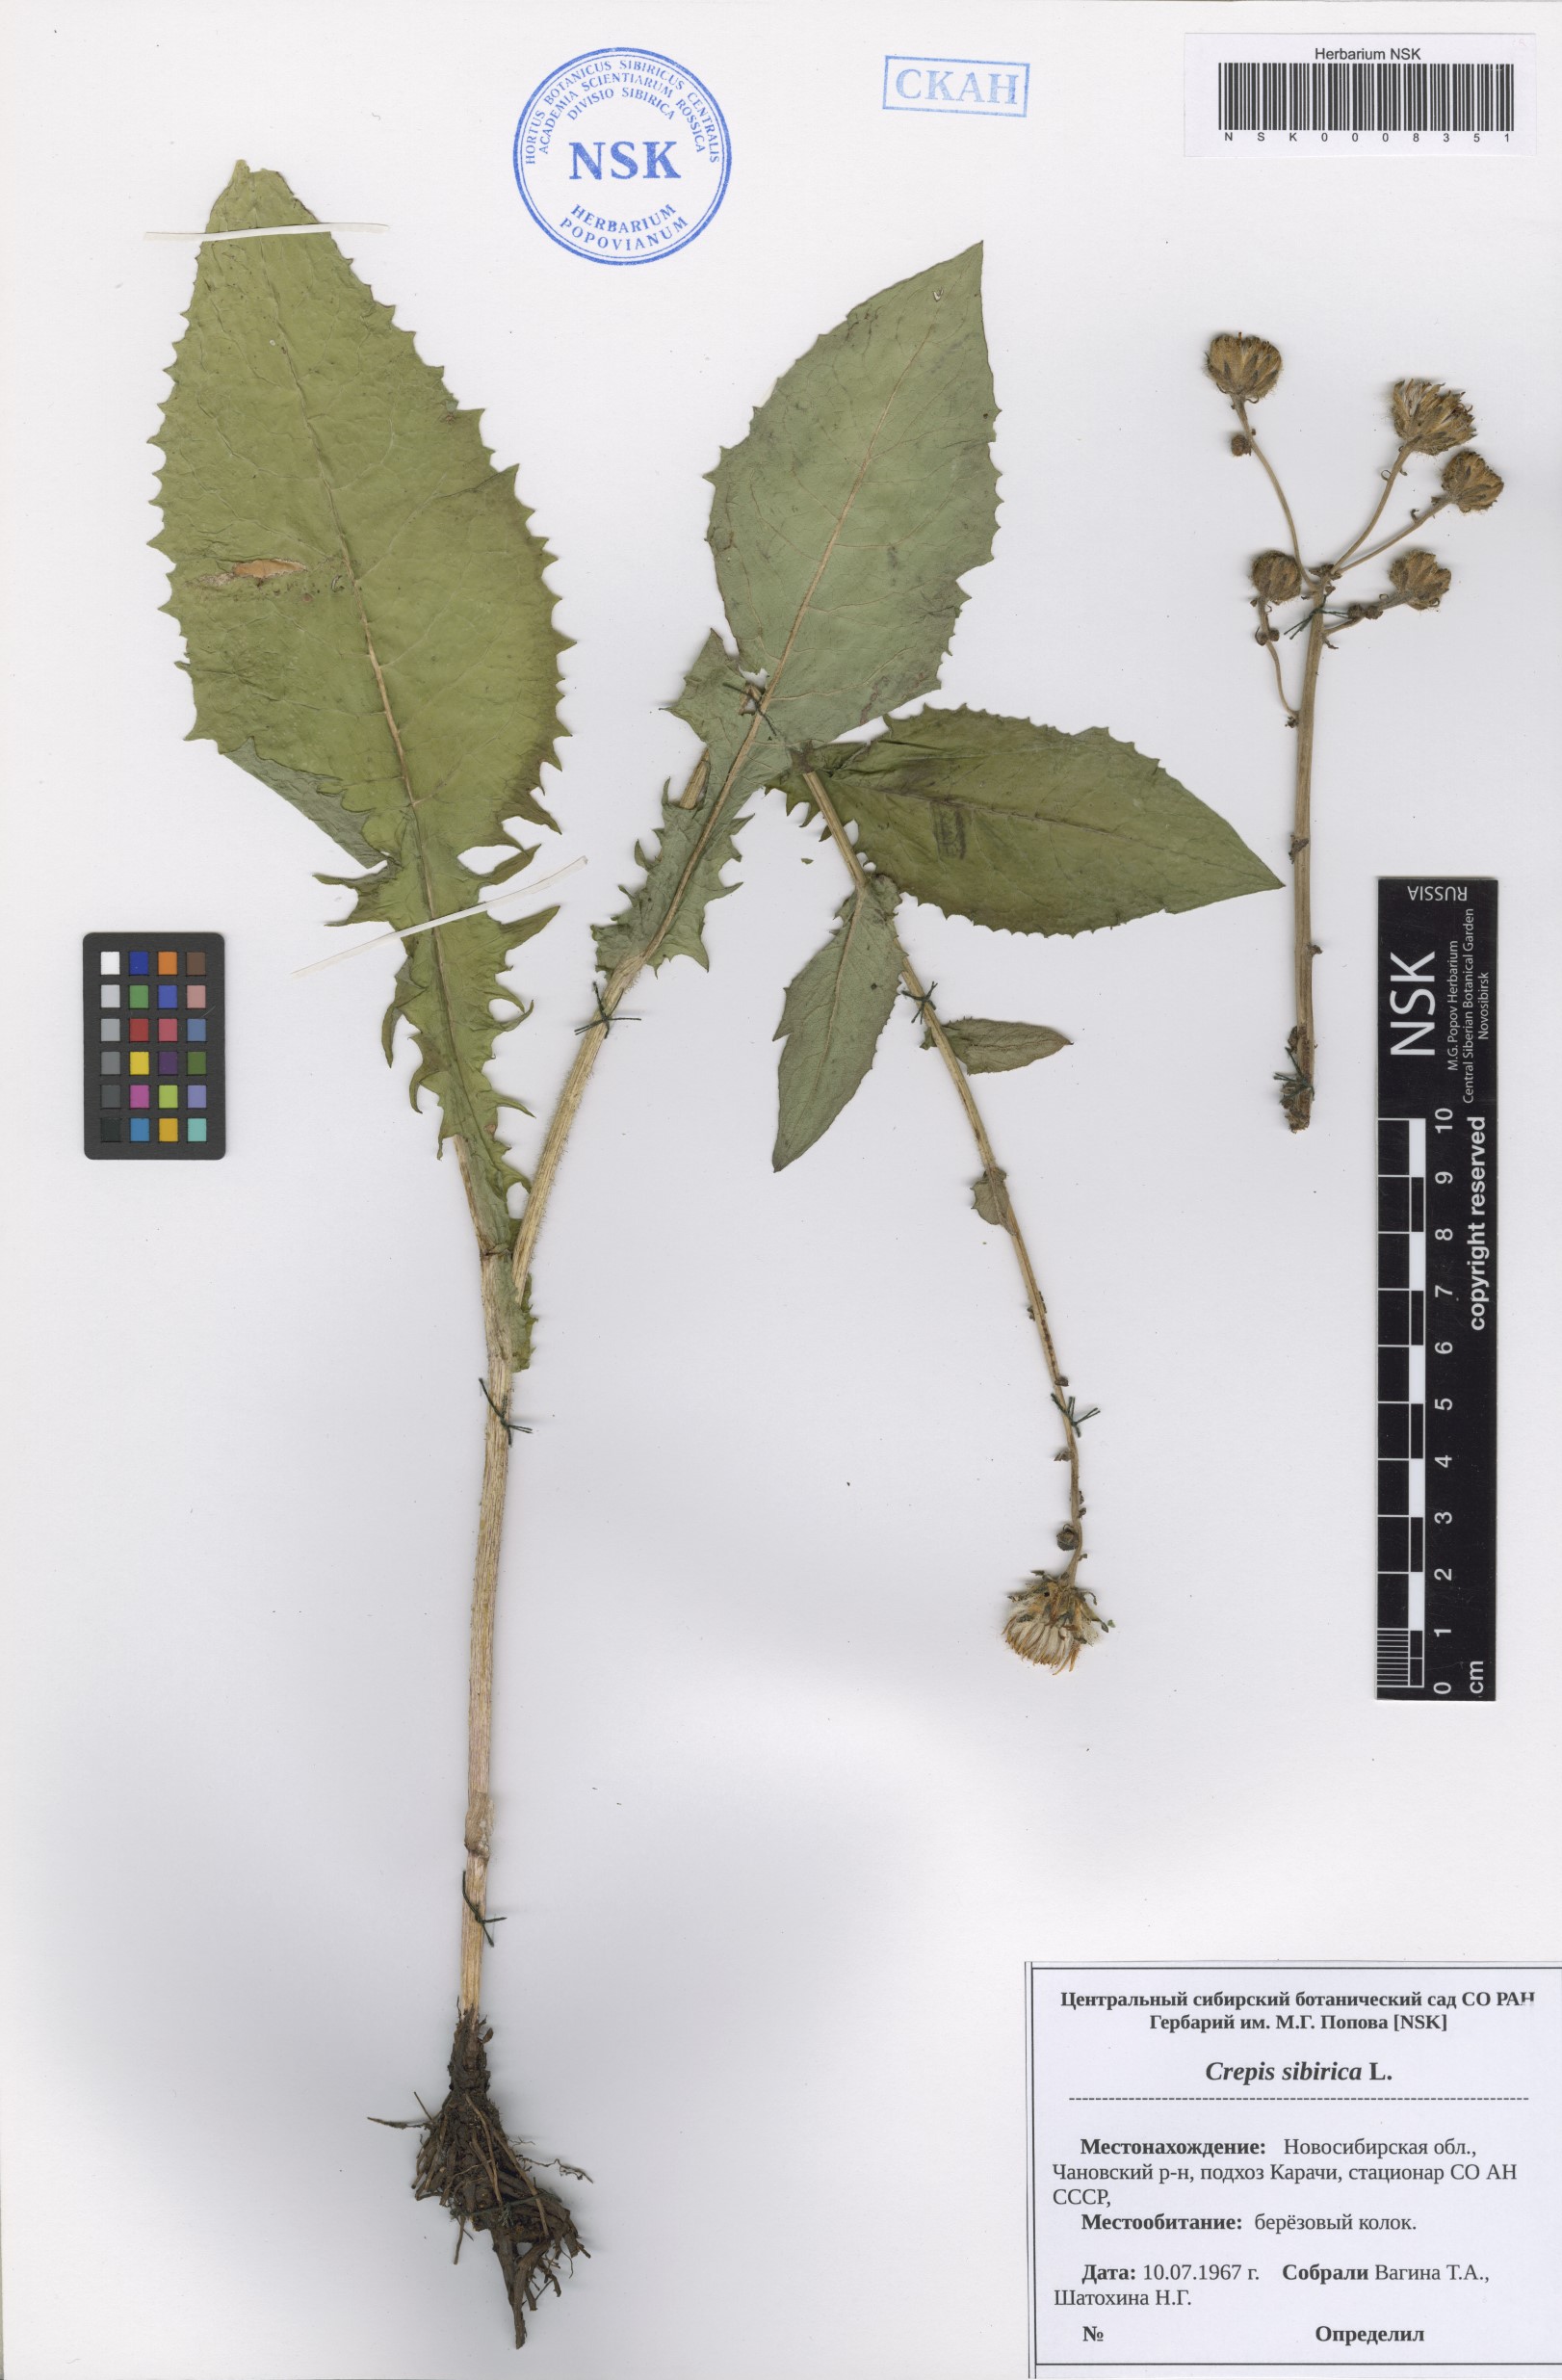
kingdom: Plantae
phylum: Tracheophyta
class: Magnoliopsida
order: Asterales
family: Asteraceae
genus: Crepis
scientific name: Crepis sibirica
